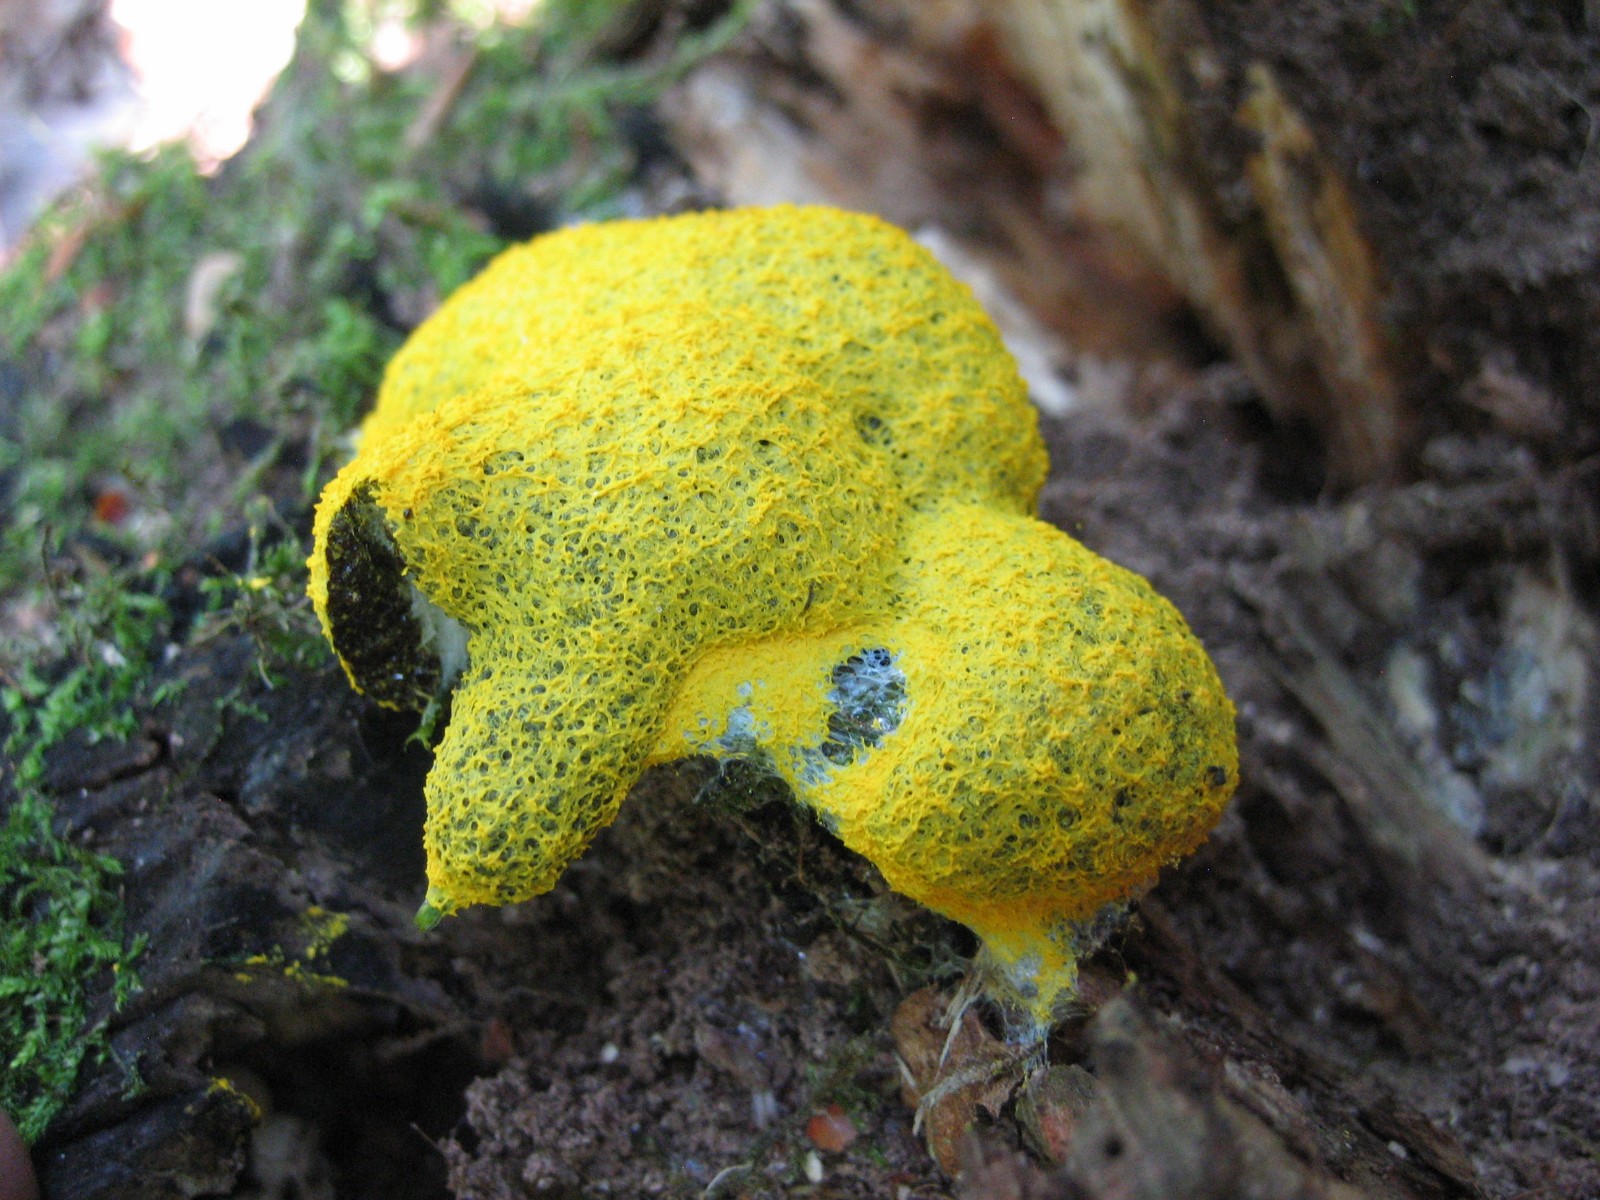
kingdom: Protozoa
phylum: Mycetozoa
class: Myxomycetes
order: Physarales
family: Physaraceae
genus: Fuligo
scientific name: Fuligo septica
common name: gul troldsmør
